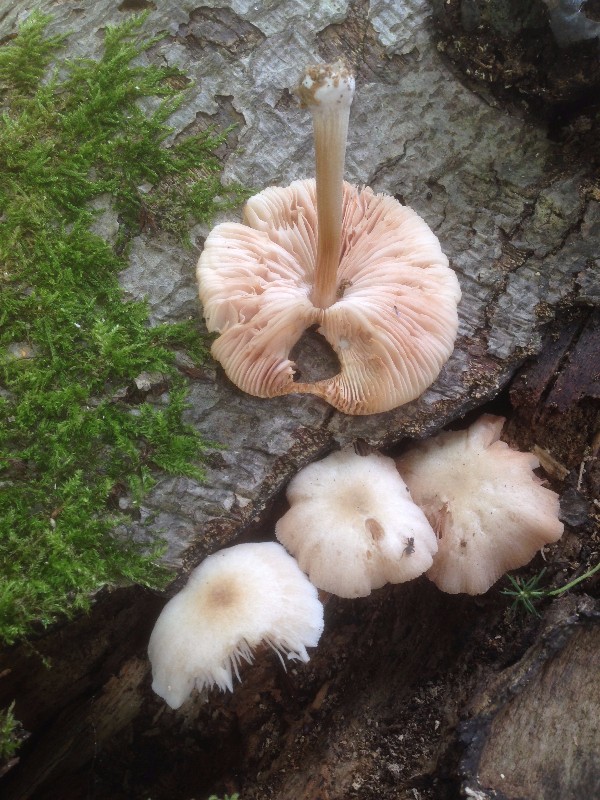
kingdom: Fungi
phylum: Basidiomycota
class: Agaricomycetes
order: Agaricales
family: Pluteaceae
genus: Pluteus
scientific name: Pluteus semibulbosus
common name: knoldet skærmhat
